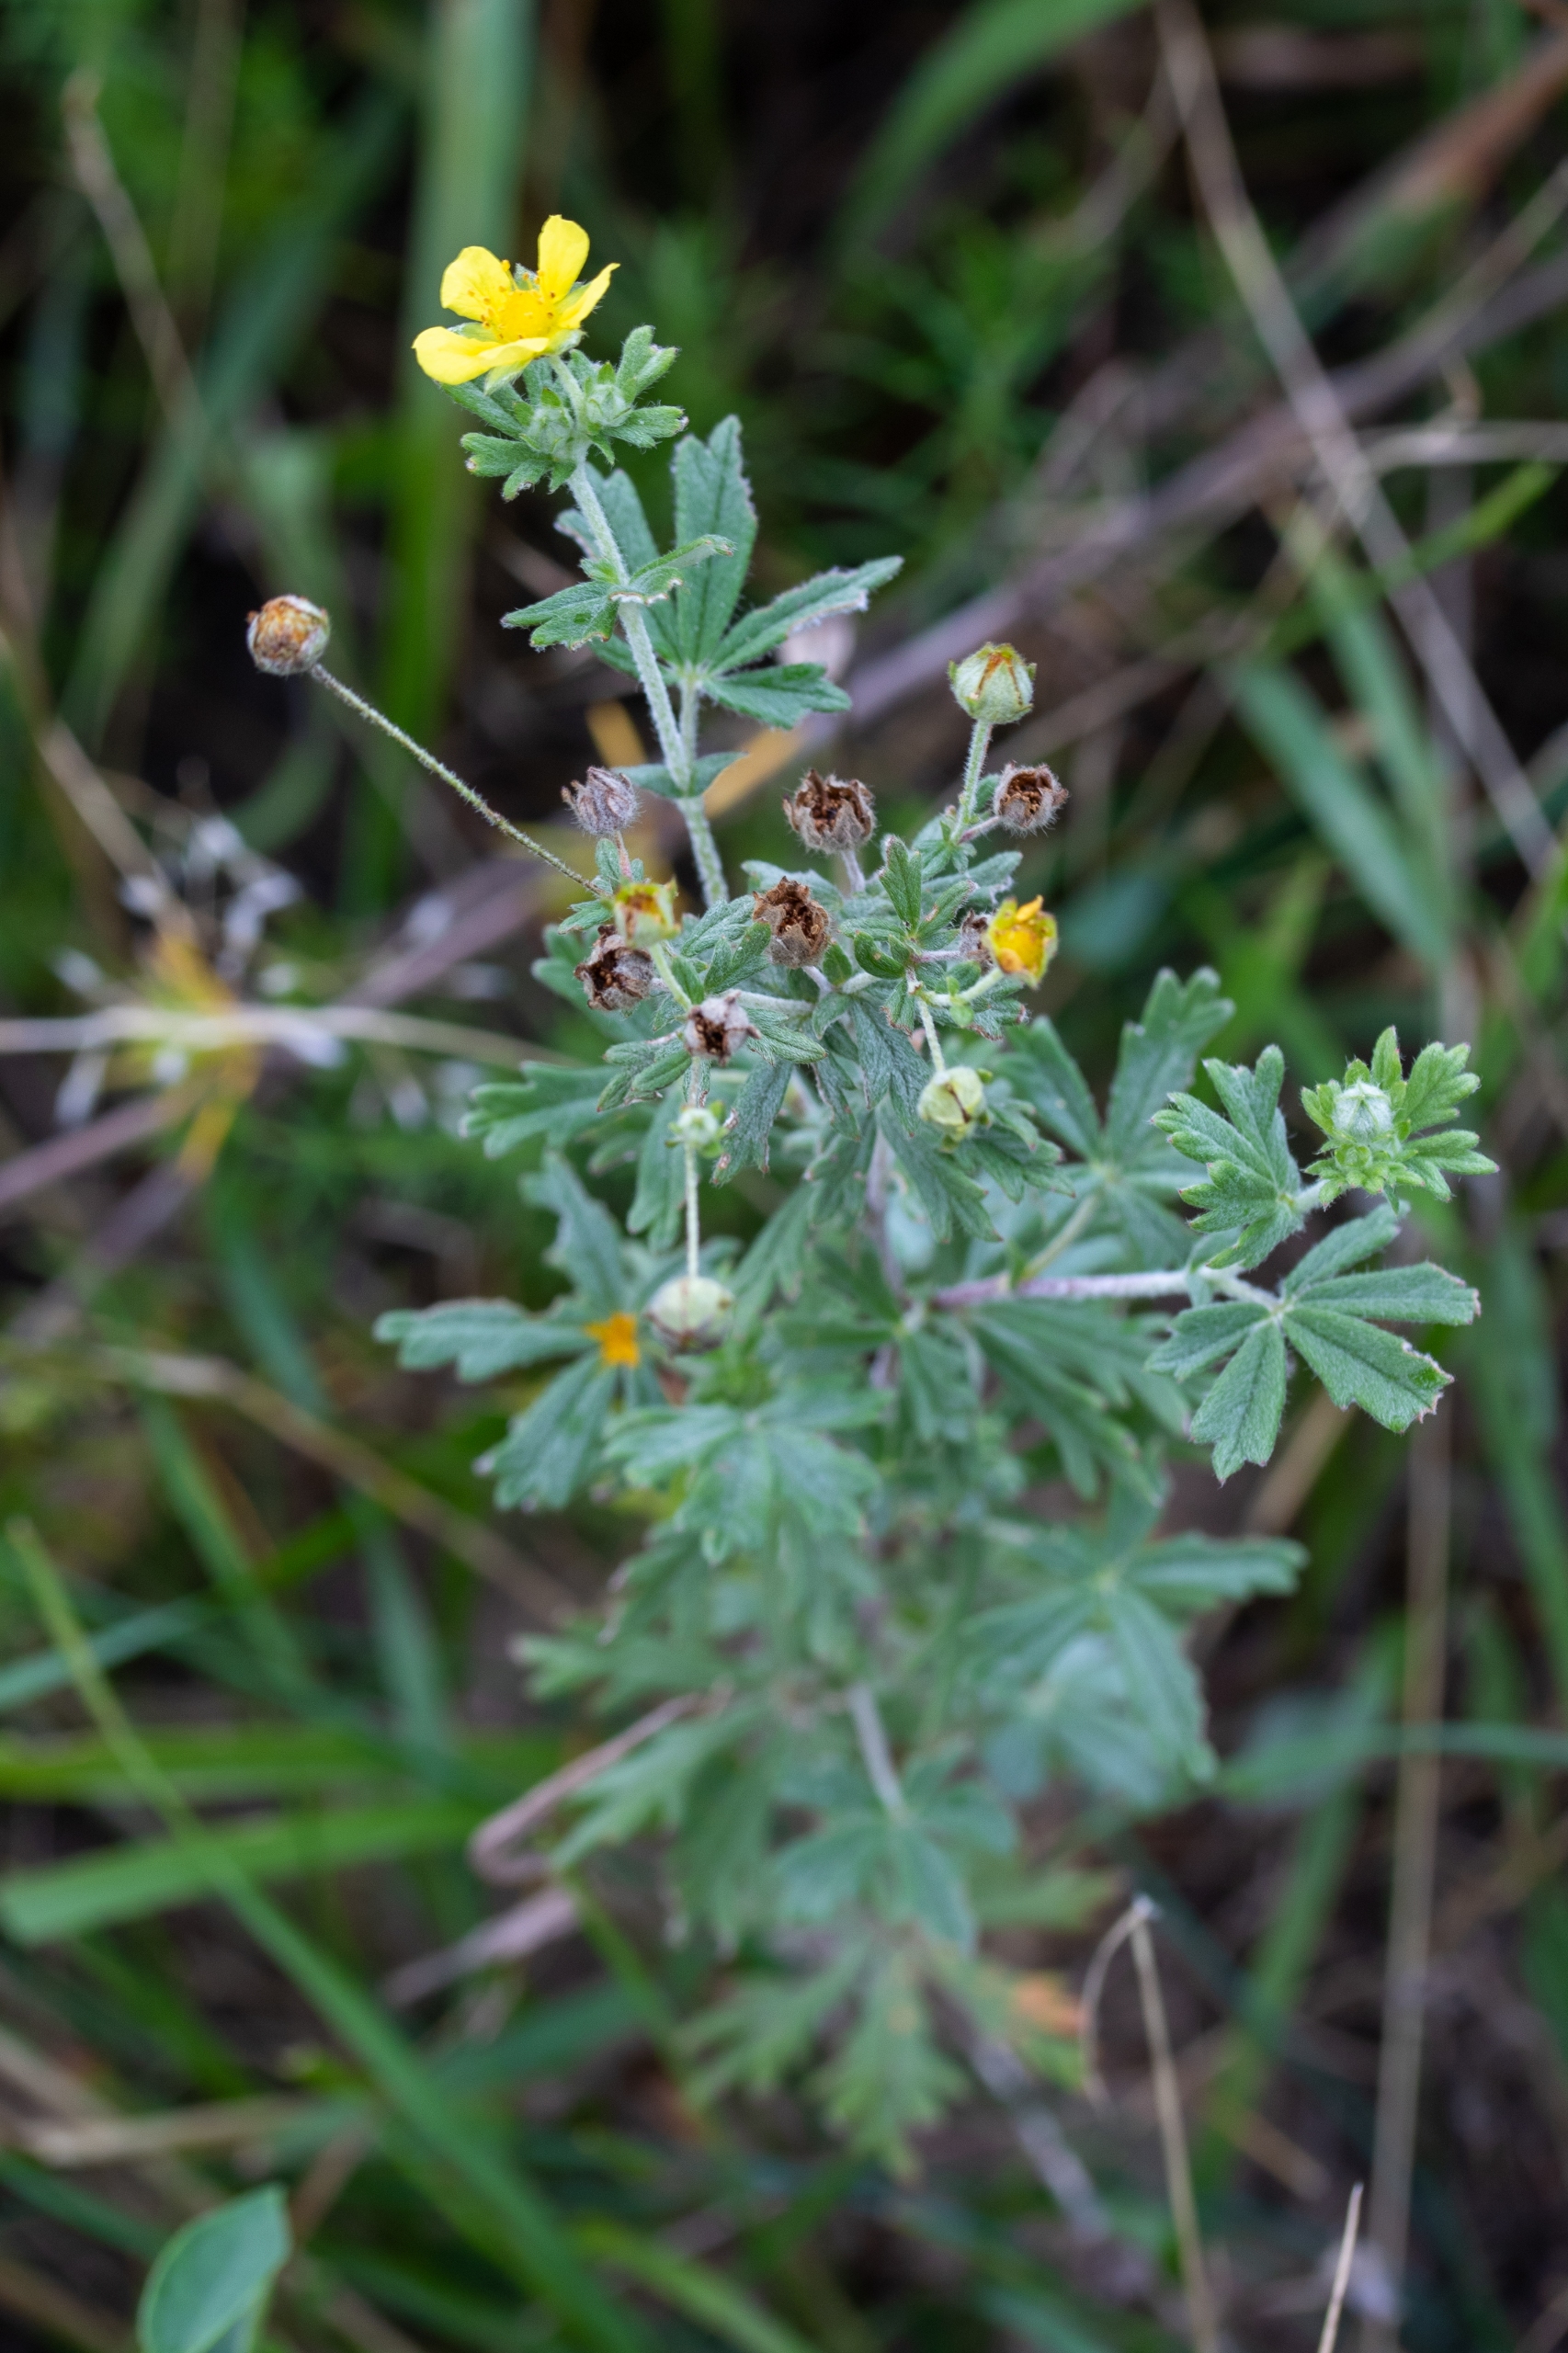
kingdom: Plantae
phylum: Tracheophyta
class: Magnoliopsida
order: Rosales
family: Rosaceae
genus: Potentilla
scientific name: Potentilla inclinata
